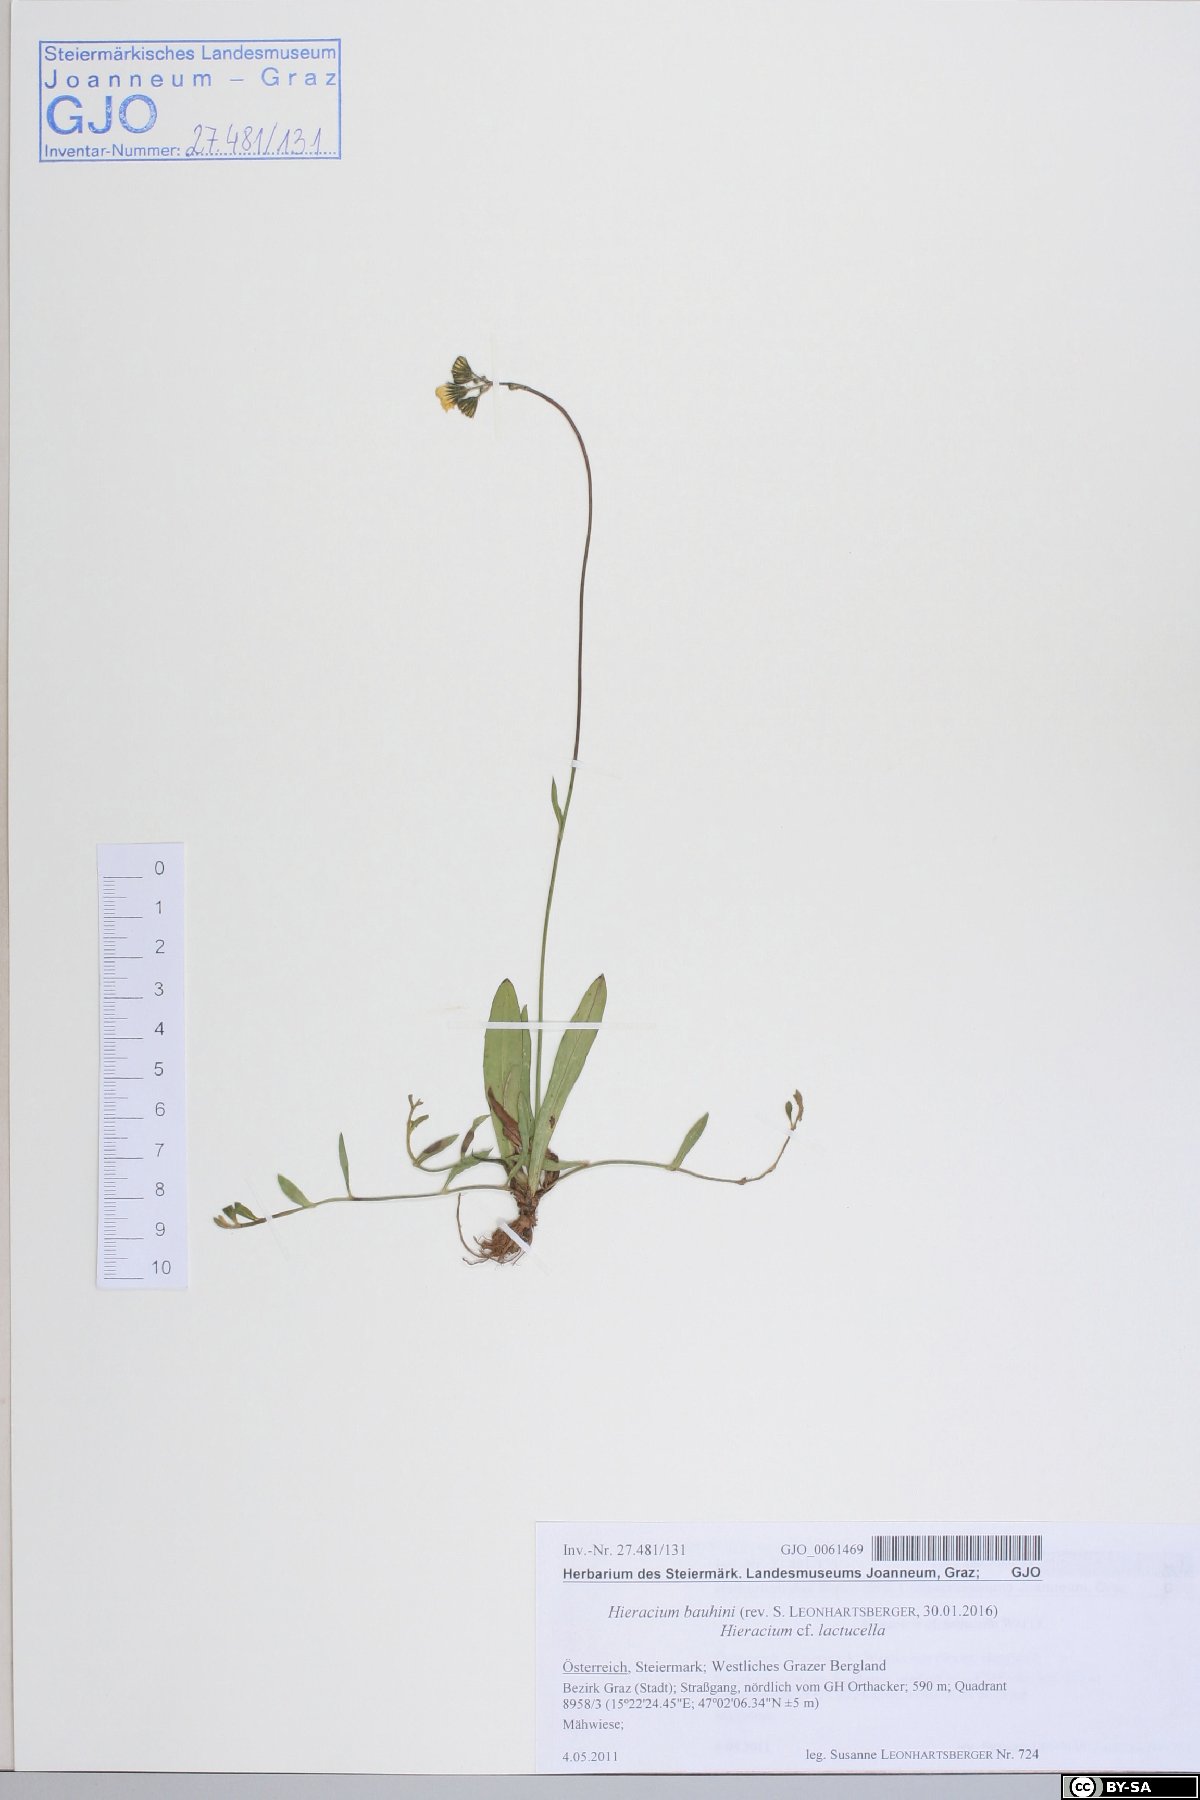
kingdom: Plantae
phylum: Tracheophyta
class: Magnoliopsida
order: Asterales
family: Asteraceae
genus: Pilosella
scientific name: Pilosella bauhini
